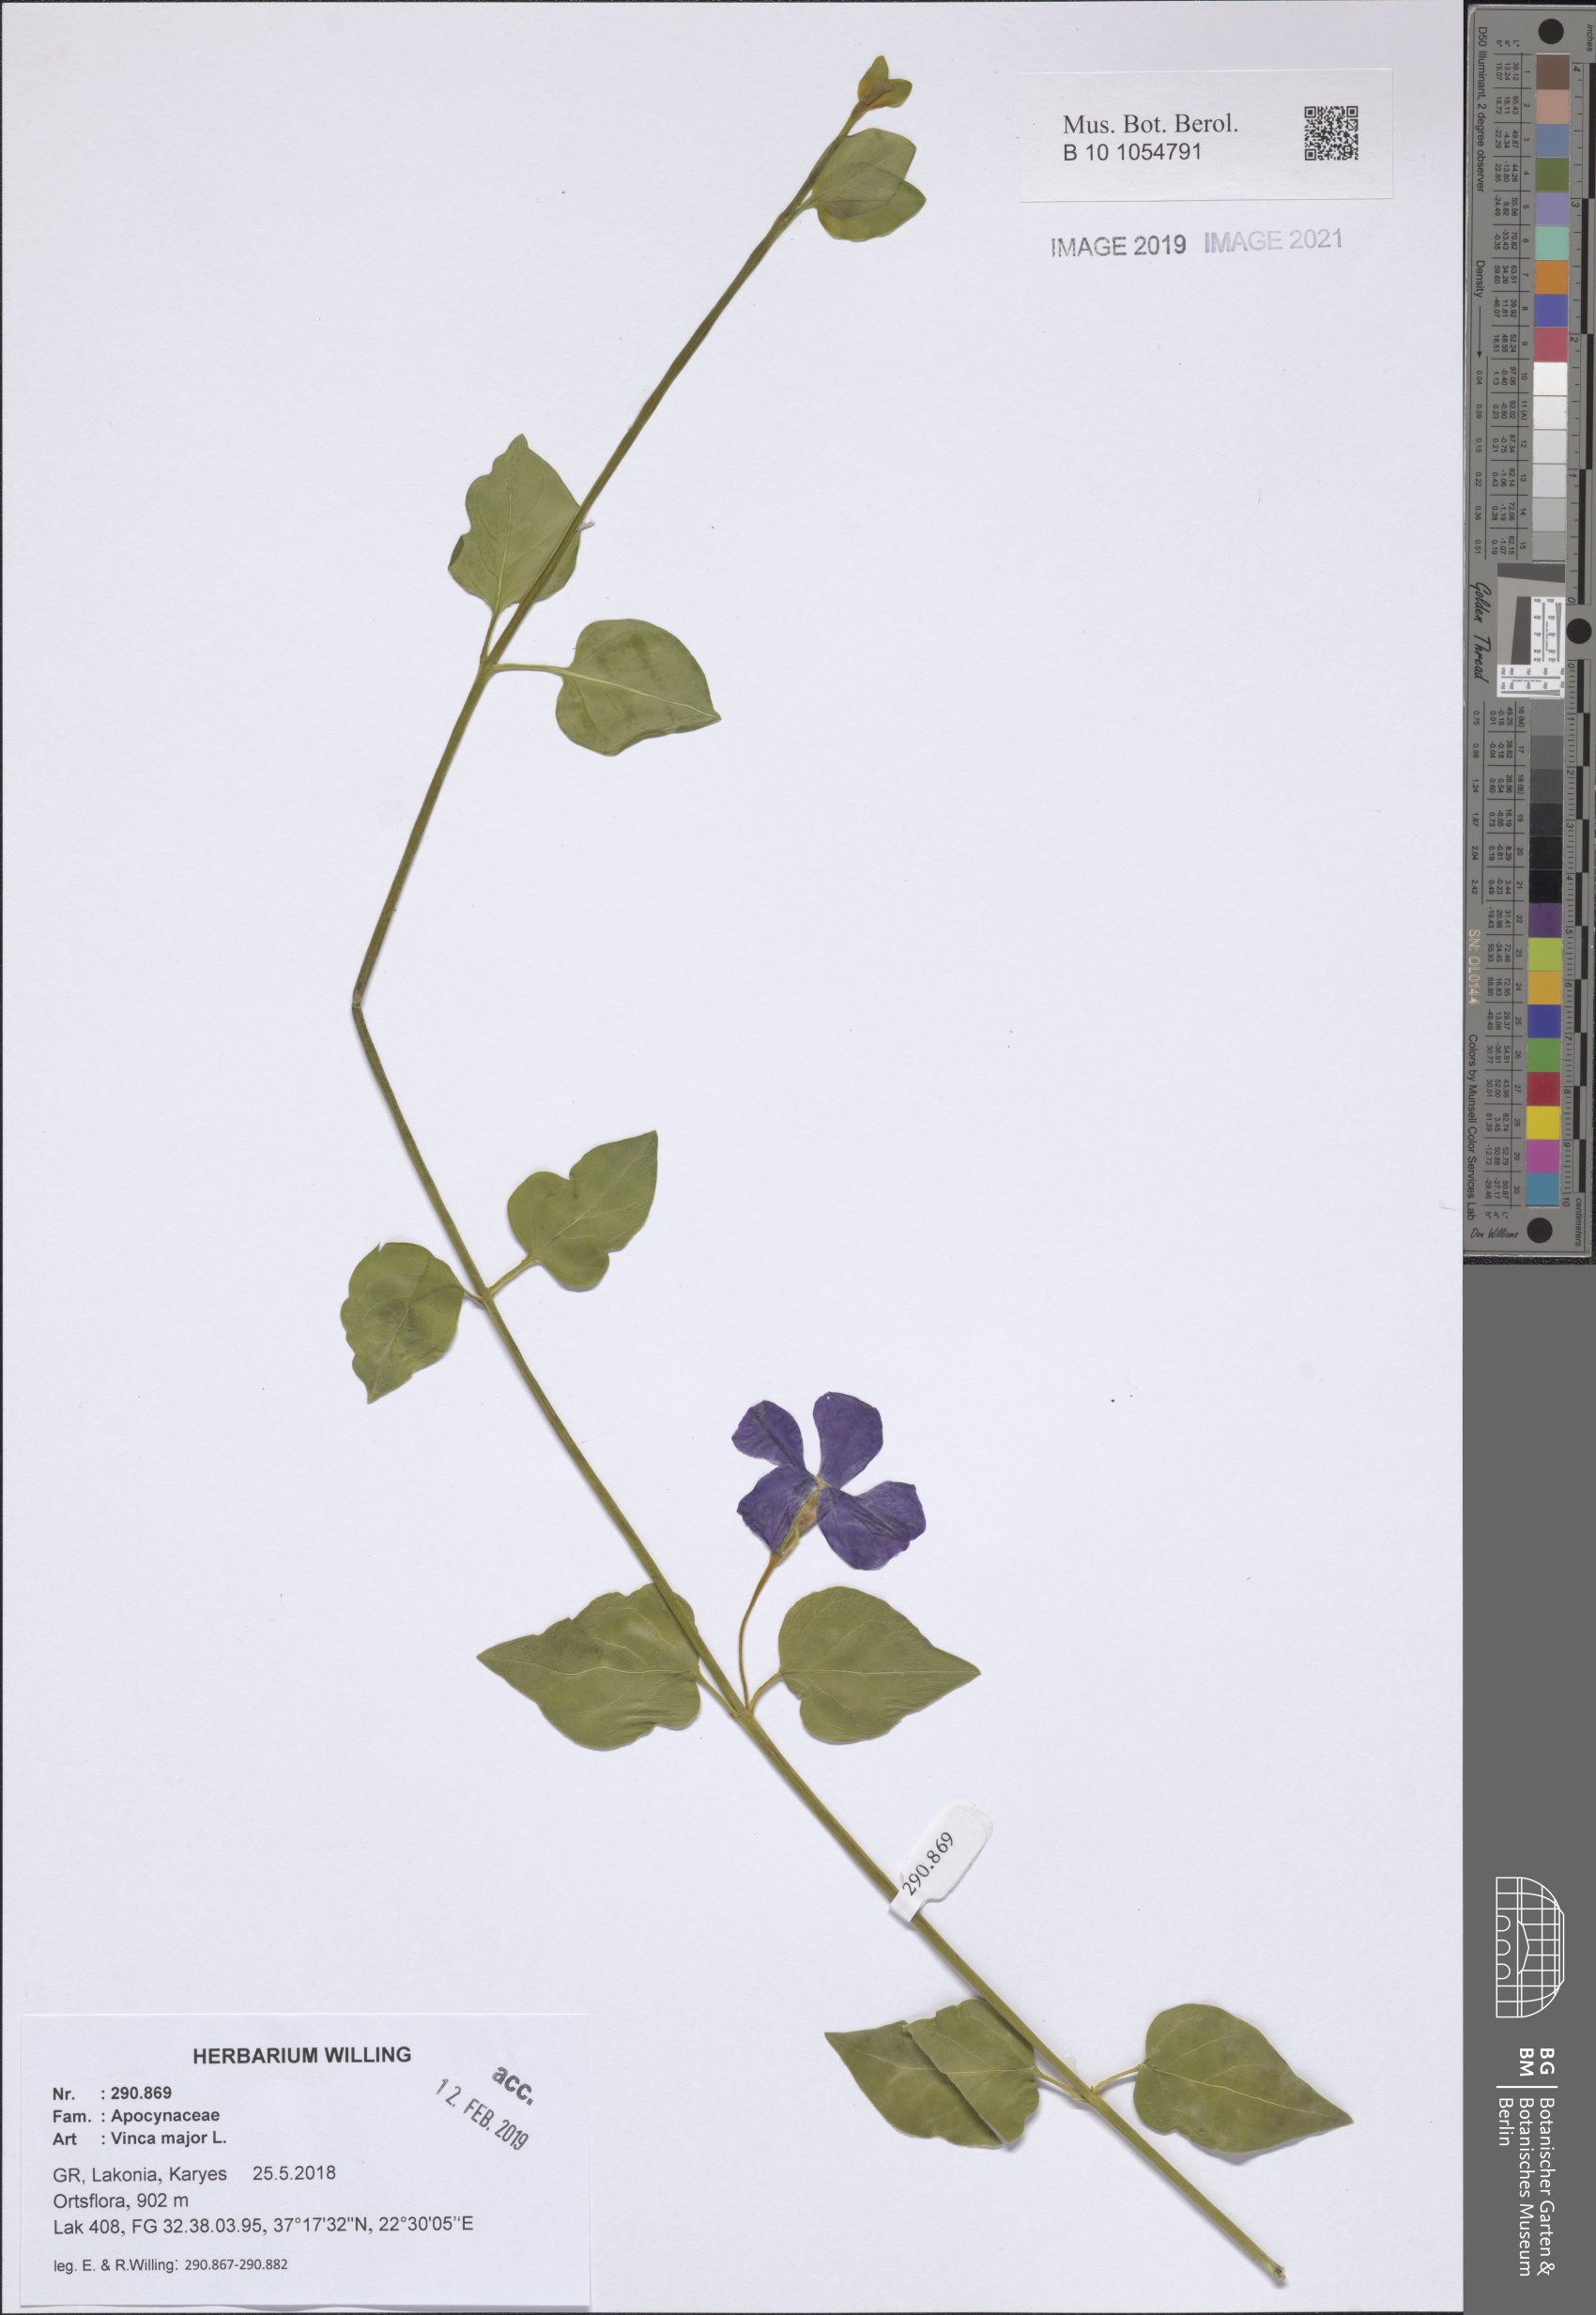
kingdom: Plantae
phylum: Tracheophyta
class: Magnoliopsida
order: Gentianales
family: Apocynaceae
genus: Vinca
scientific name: Vinca major
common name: Greater periwinkle
